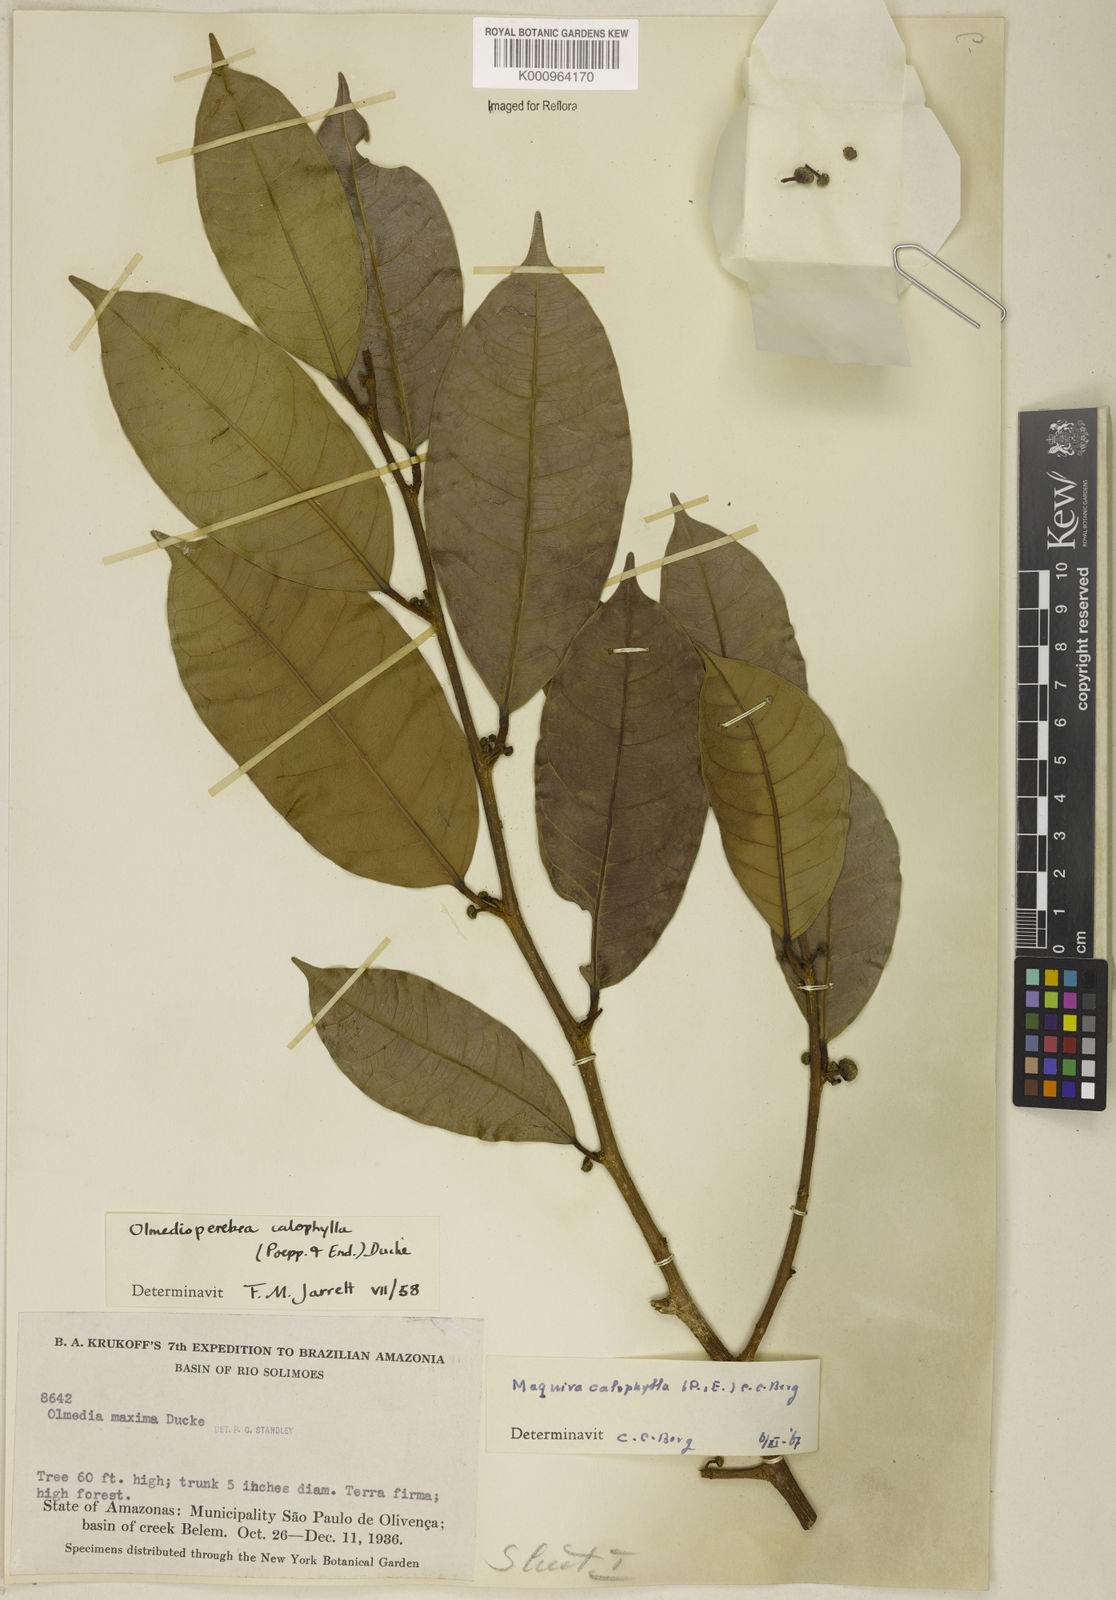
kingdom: Plantae
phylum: Tracheophyta
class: Magnoliopsida
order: Rosales
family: Moraceae
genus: Maquira
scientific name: Maquira calophylla
